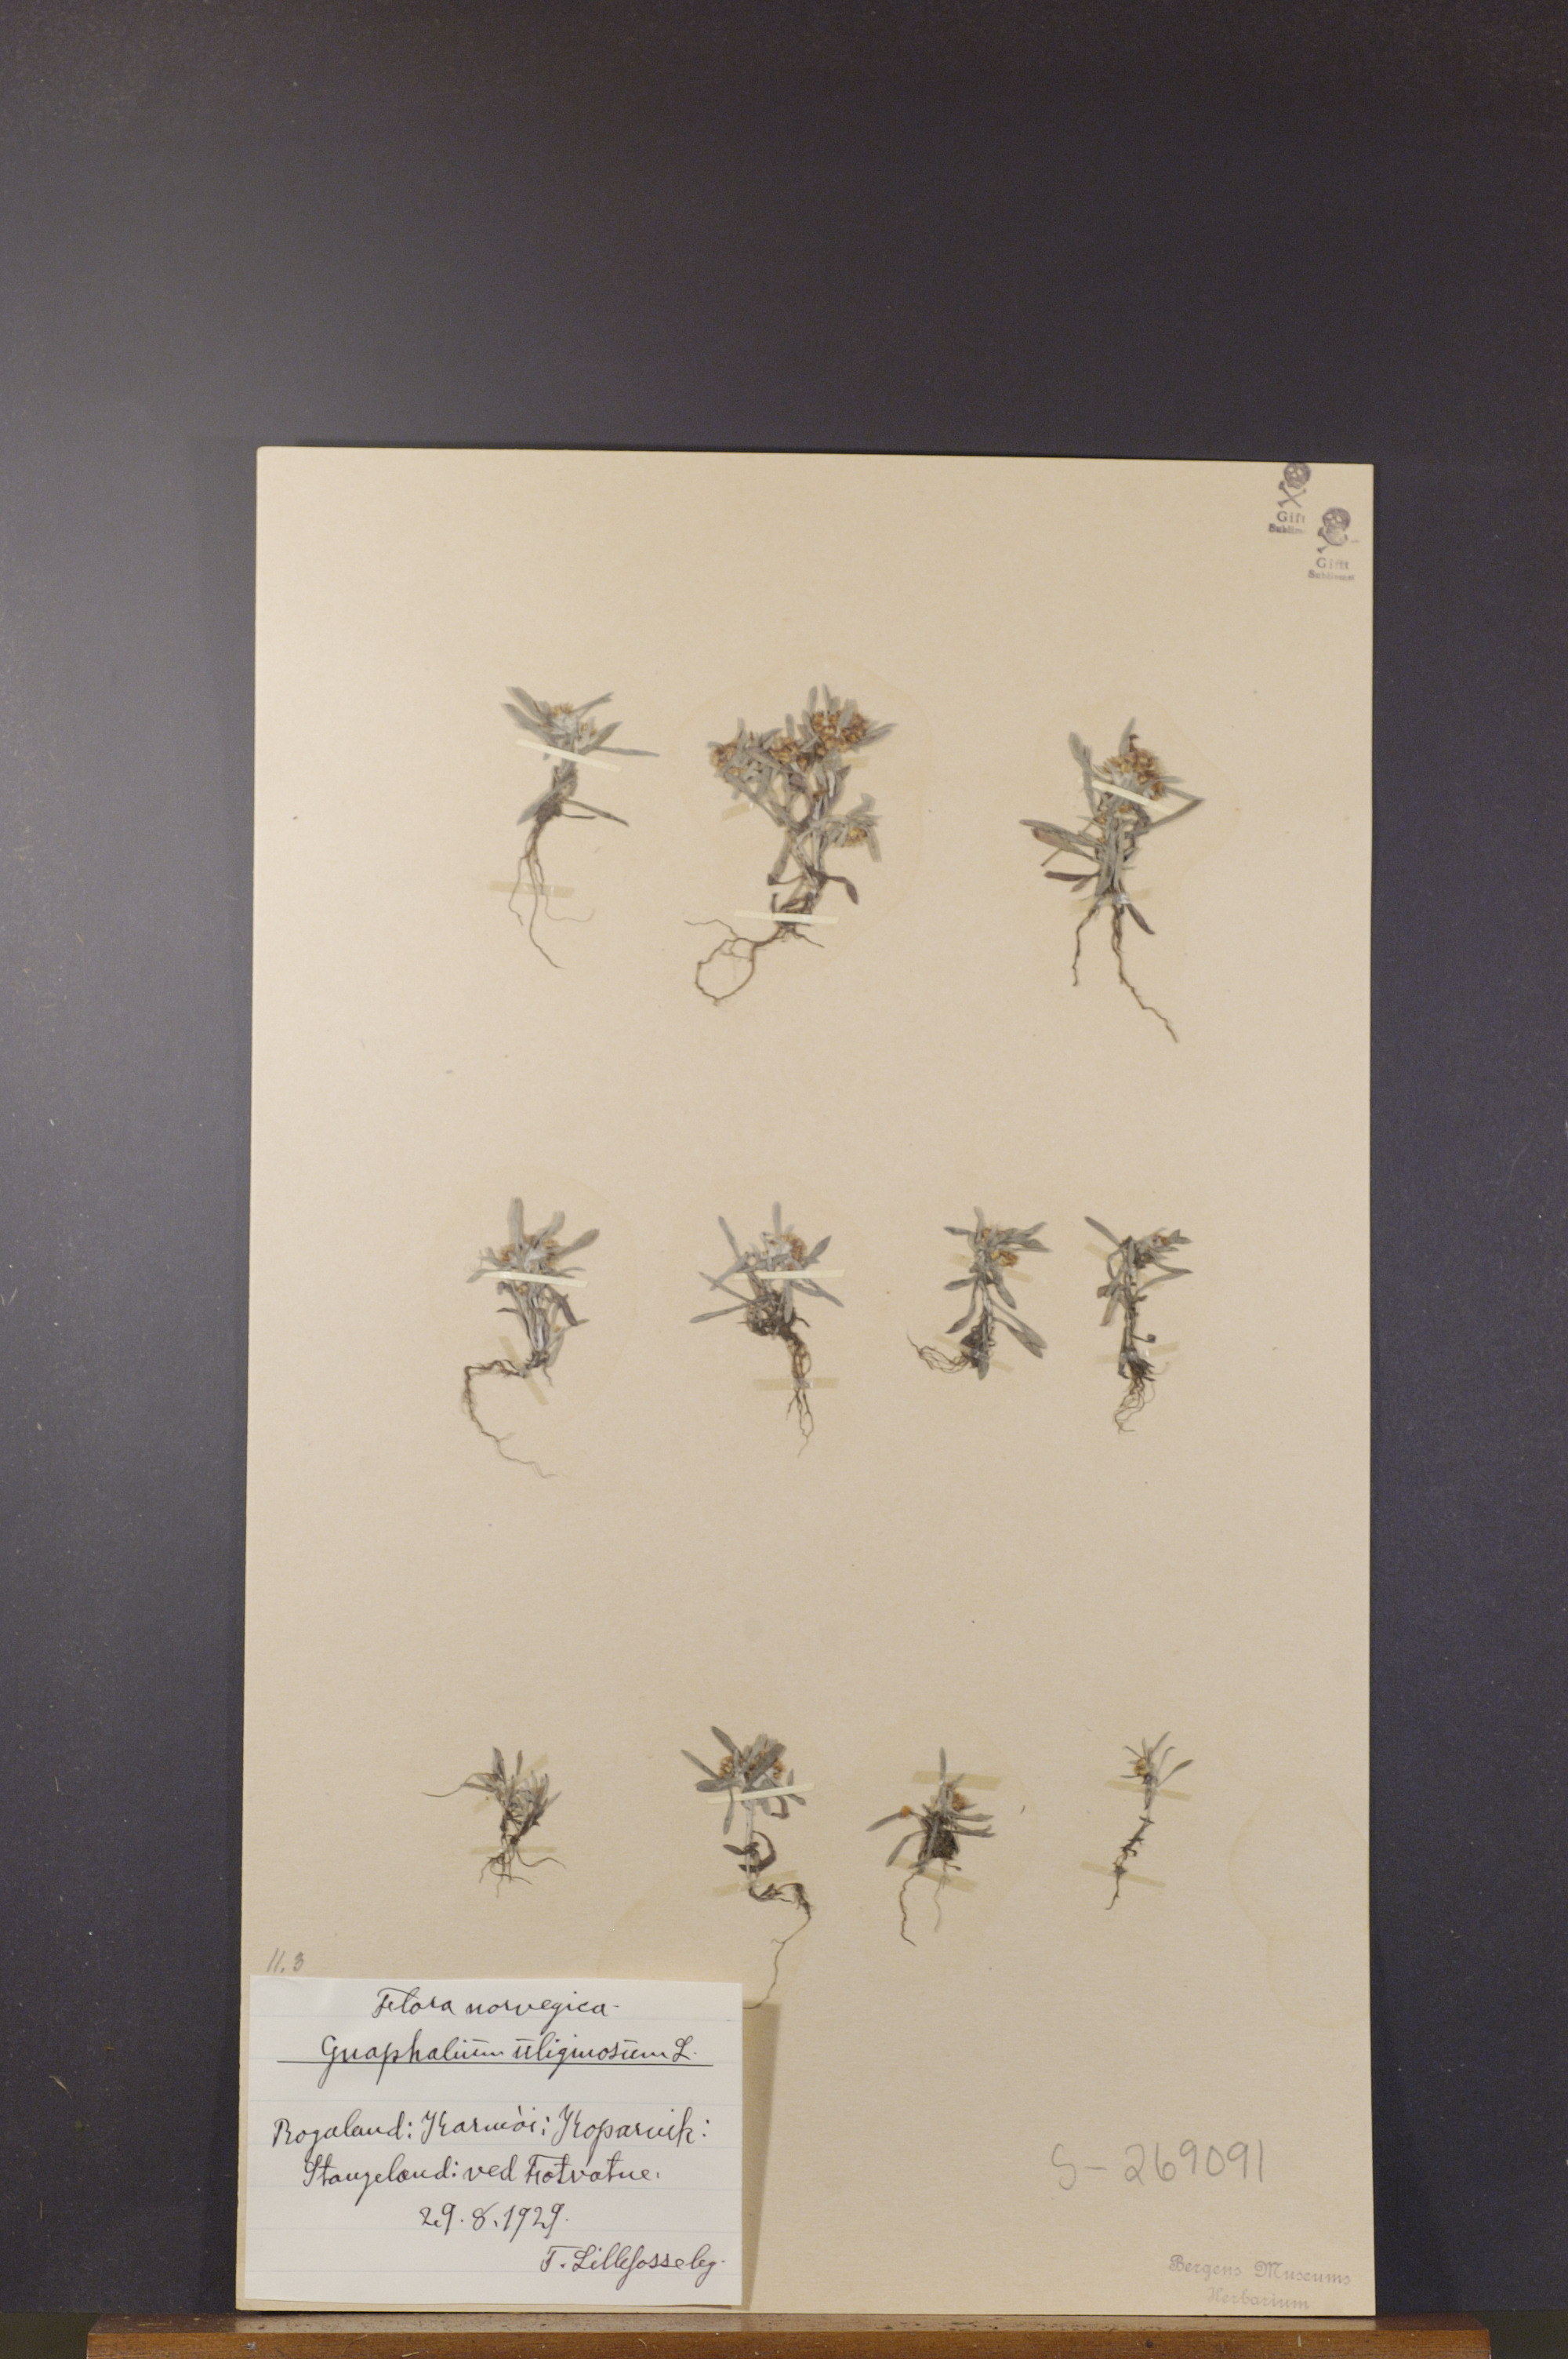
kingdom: Plantae
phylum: Tracheophyta
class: Magnoliopsida
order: Asterales
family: Asteraceae
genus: Gnaphalium
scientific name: Gnaphalium uliginosum
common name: Marsh cudweed
